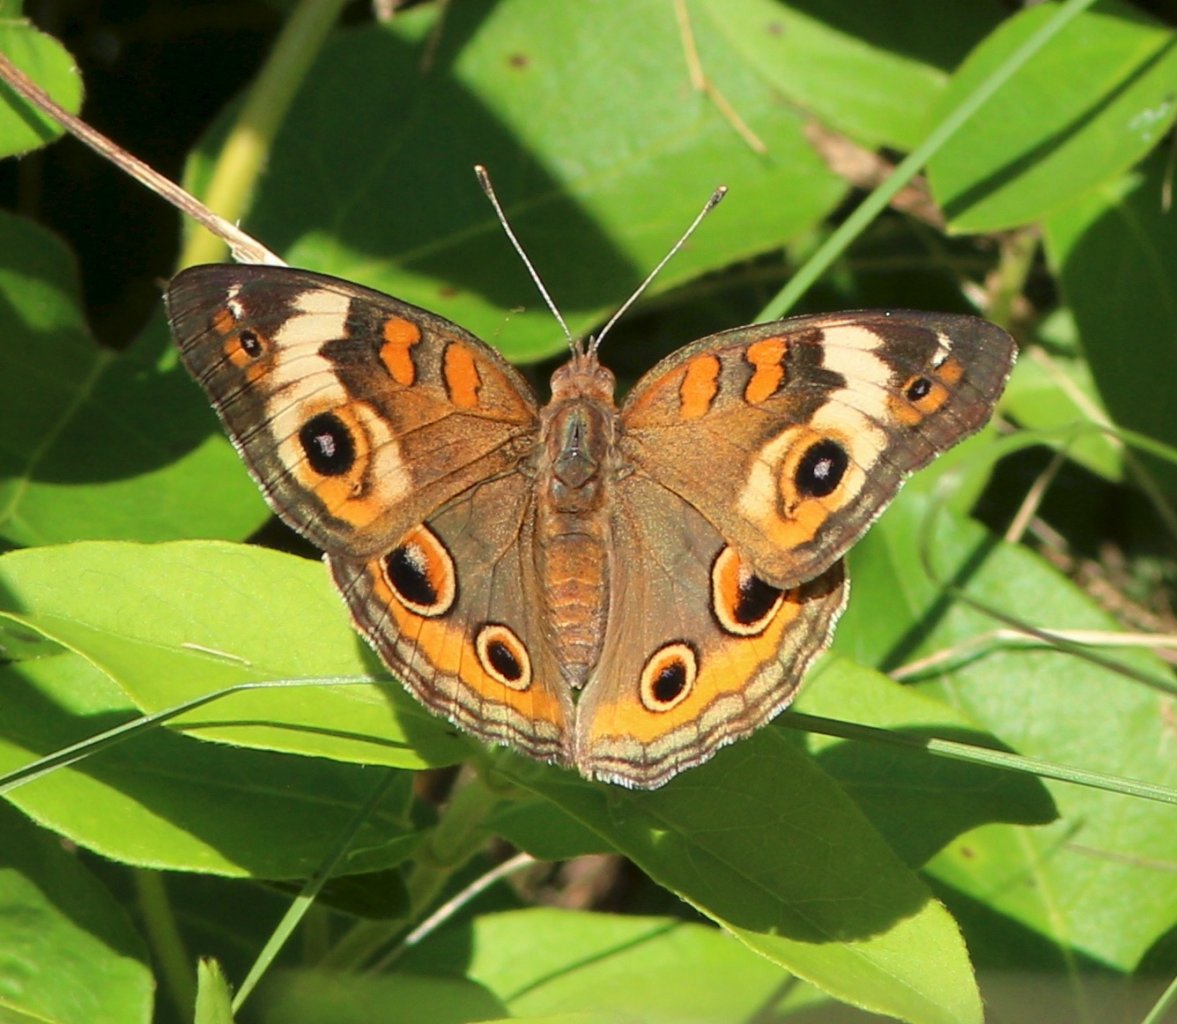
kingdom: Animalia
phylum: Arthropoda
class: Insecta
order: Lepidoptera
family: Nymphalidae
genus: Junonia
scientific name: Junonia coenia
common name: Common Buckeye
